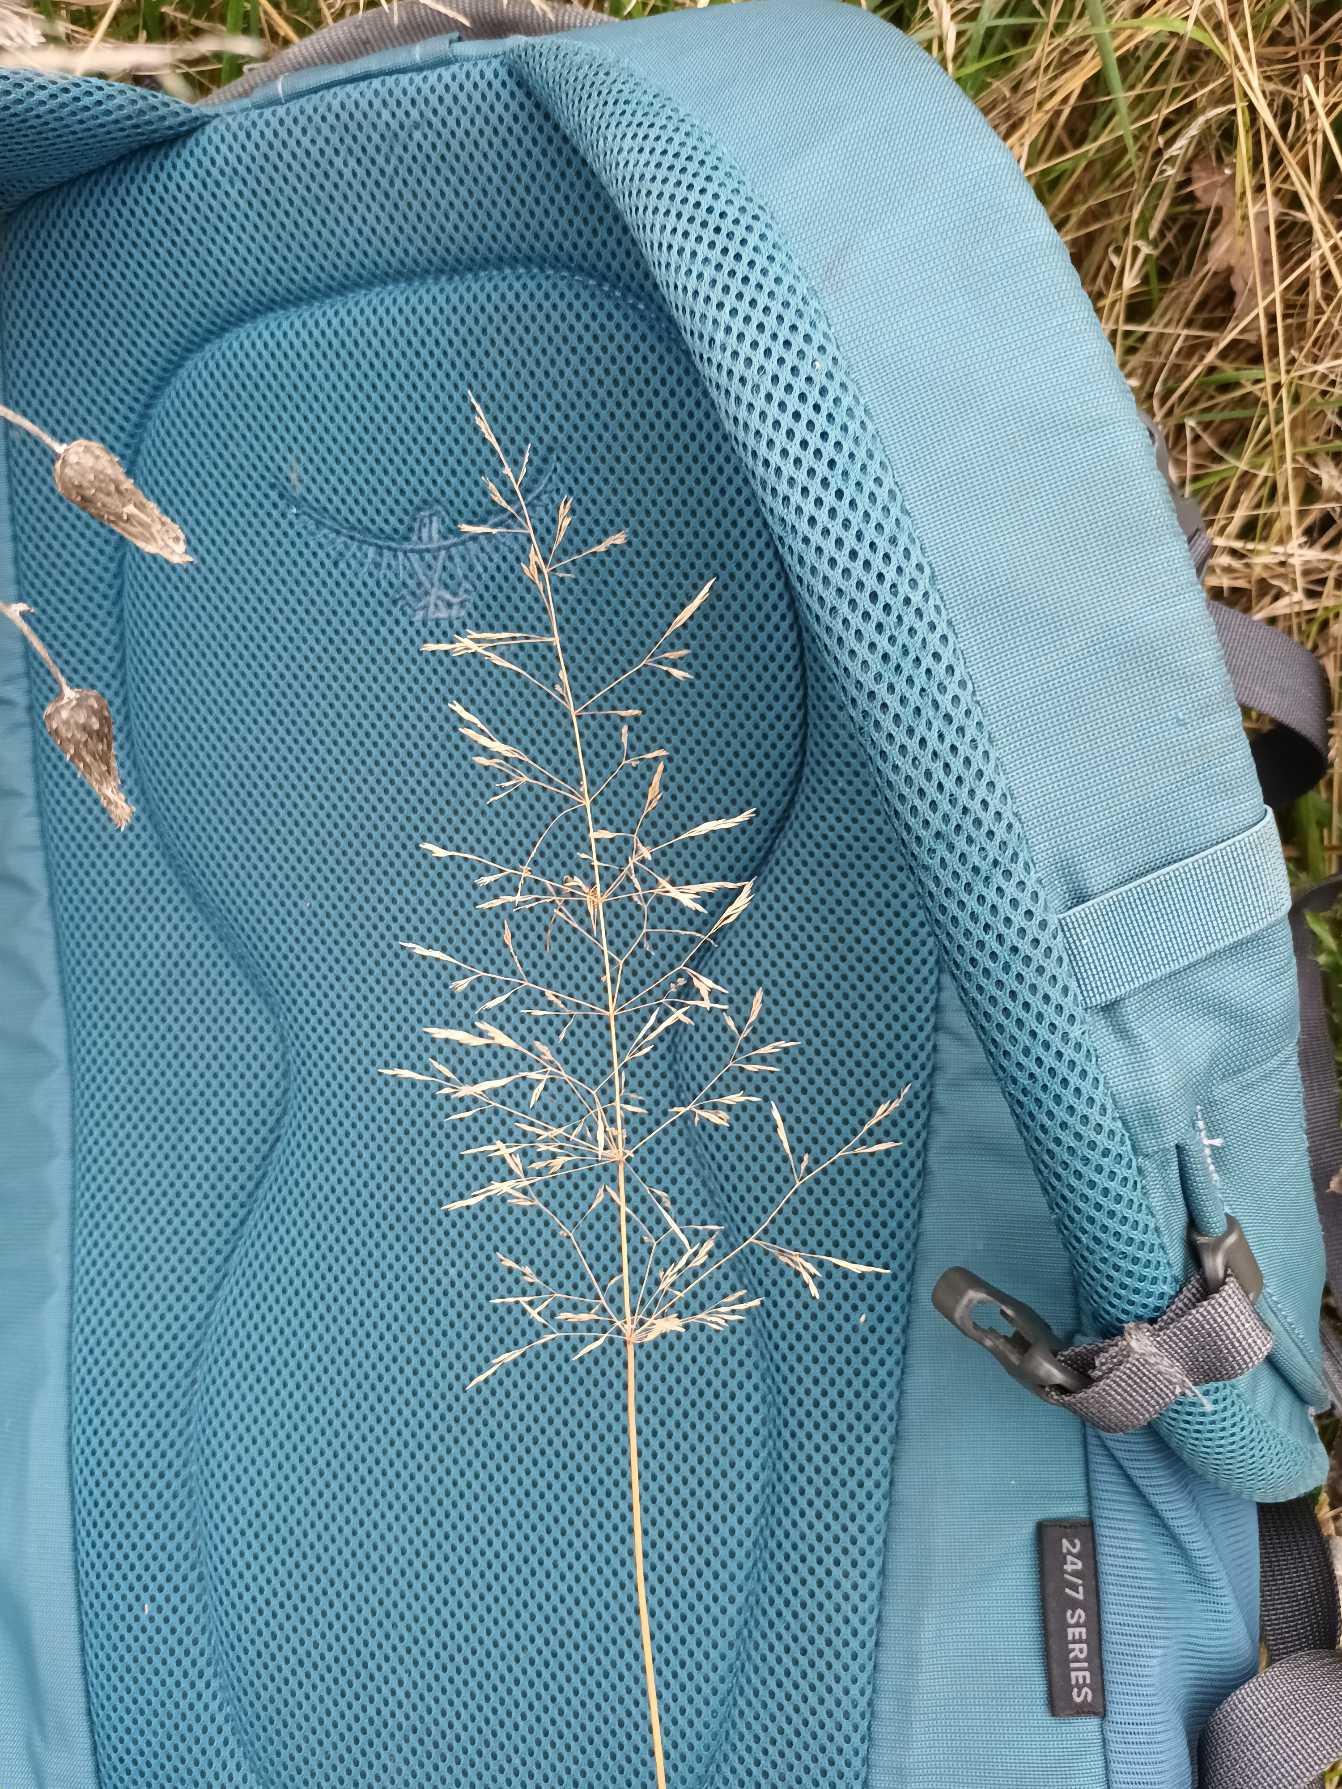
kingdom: Plantae
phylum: Tracheophyta
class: Liliopsida
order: Poales
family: Poaceae
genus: Agrostis
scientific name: Agrostis gigantea
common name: Stortoppet hvene
